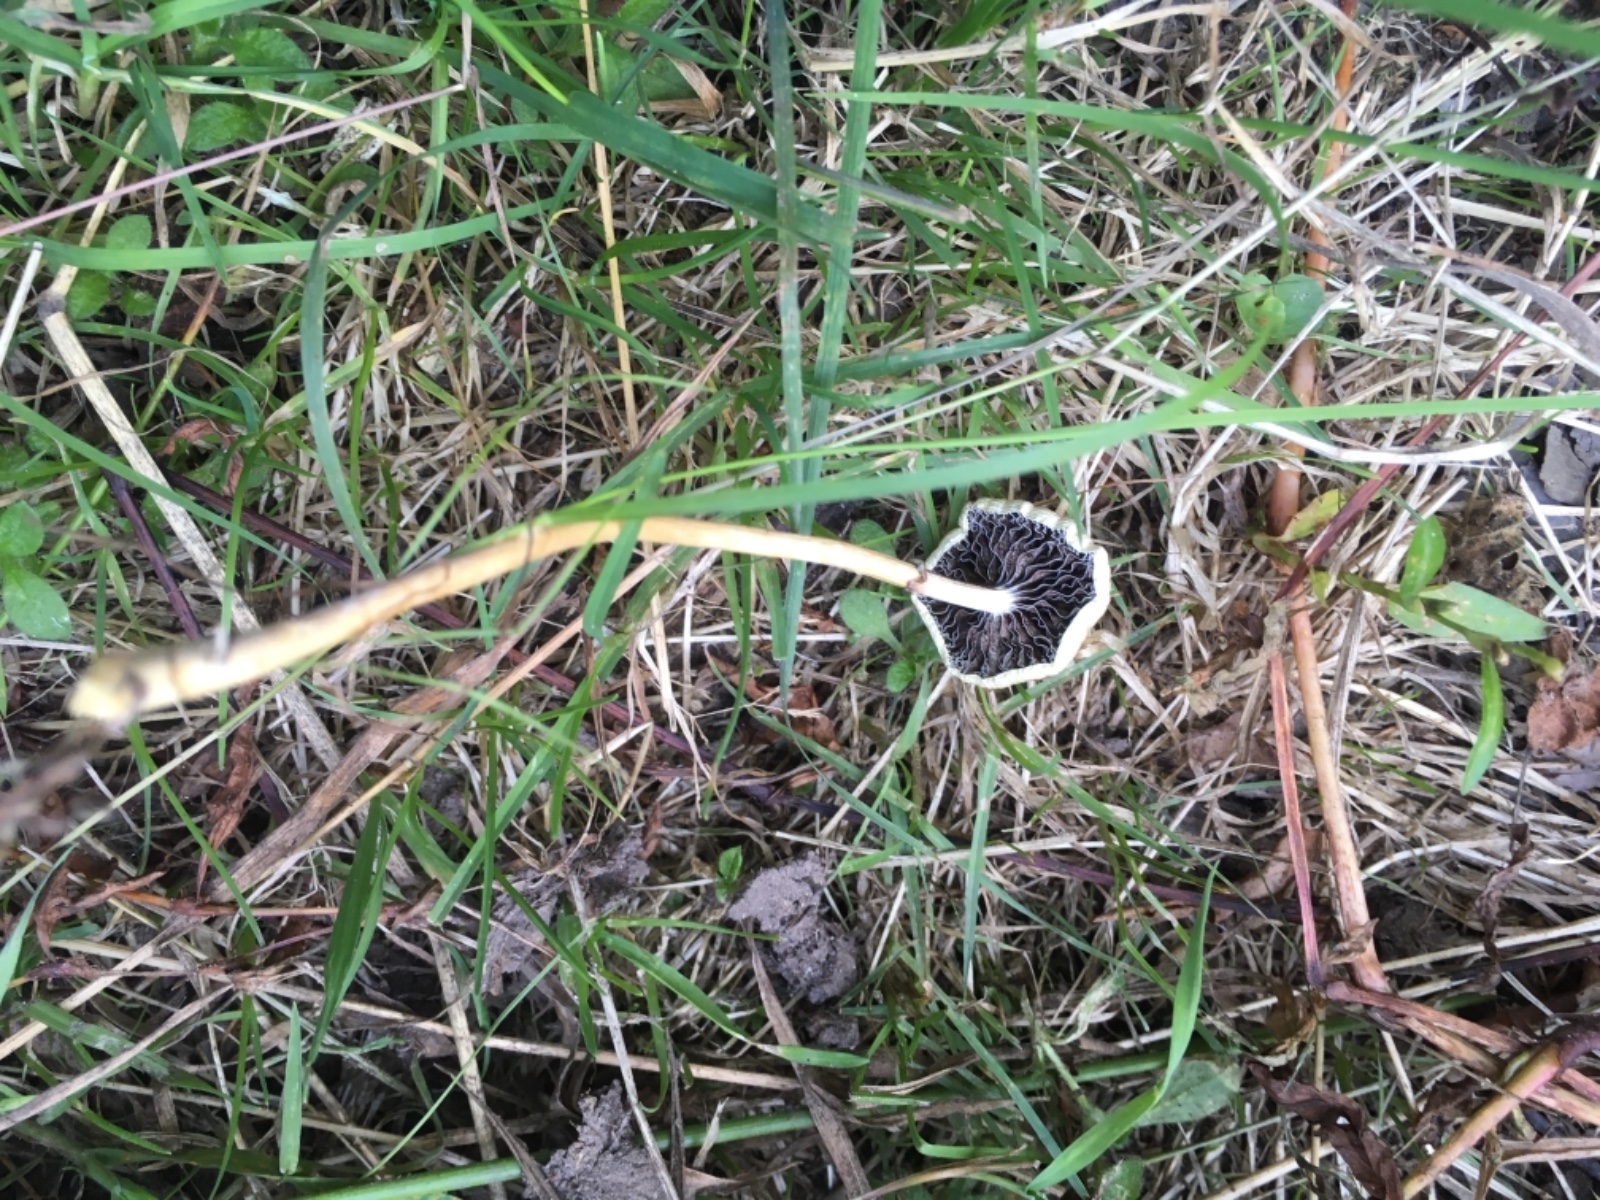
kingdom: Fungi
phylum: Basidiomycota
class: Agaricomycetes
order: Agaricales
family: Strophariaceae
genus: Protostropharia
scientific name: Protostropharia semiglobata
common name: halvkugleformet bredblad
